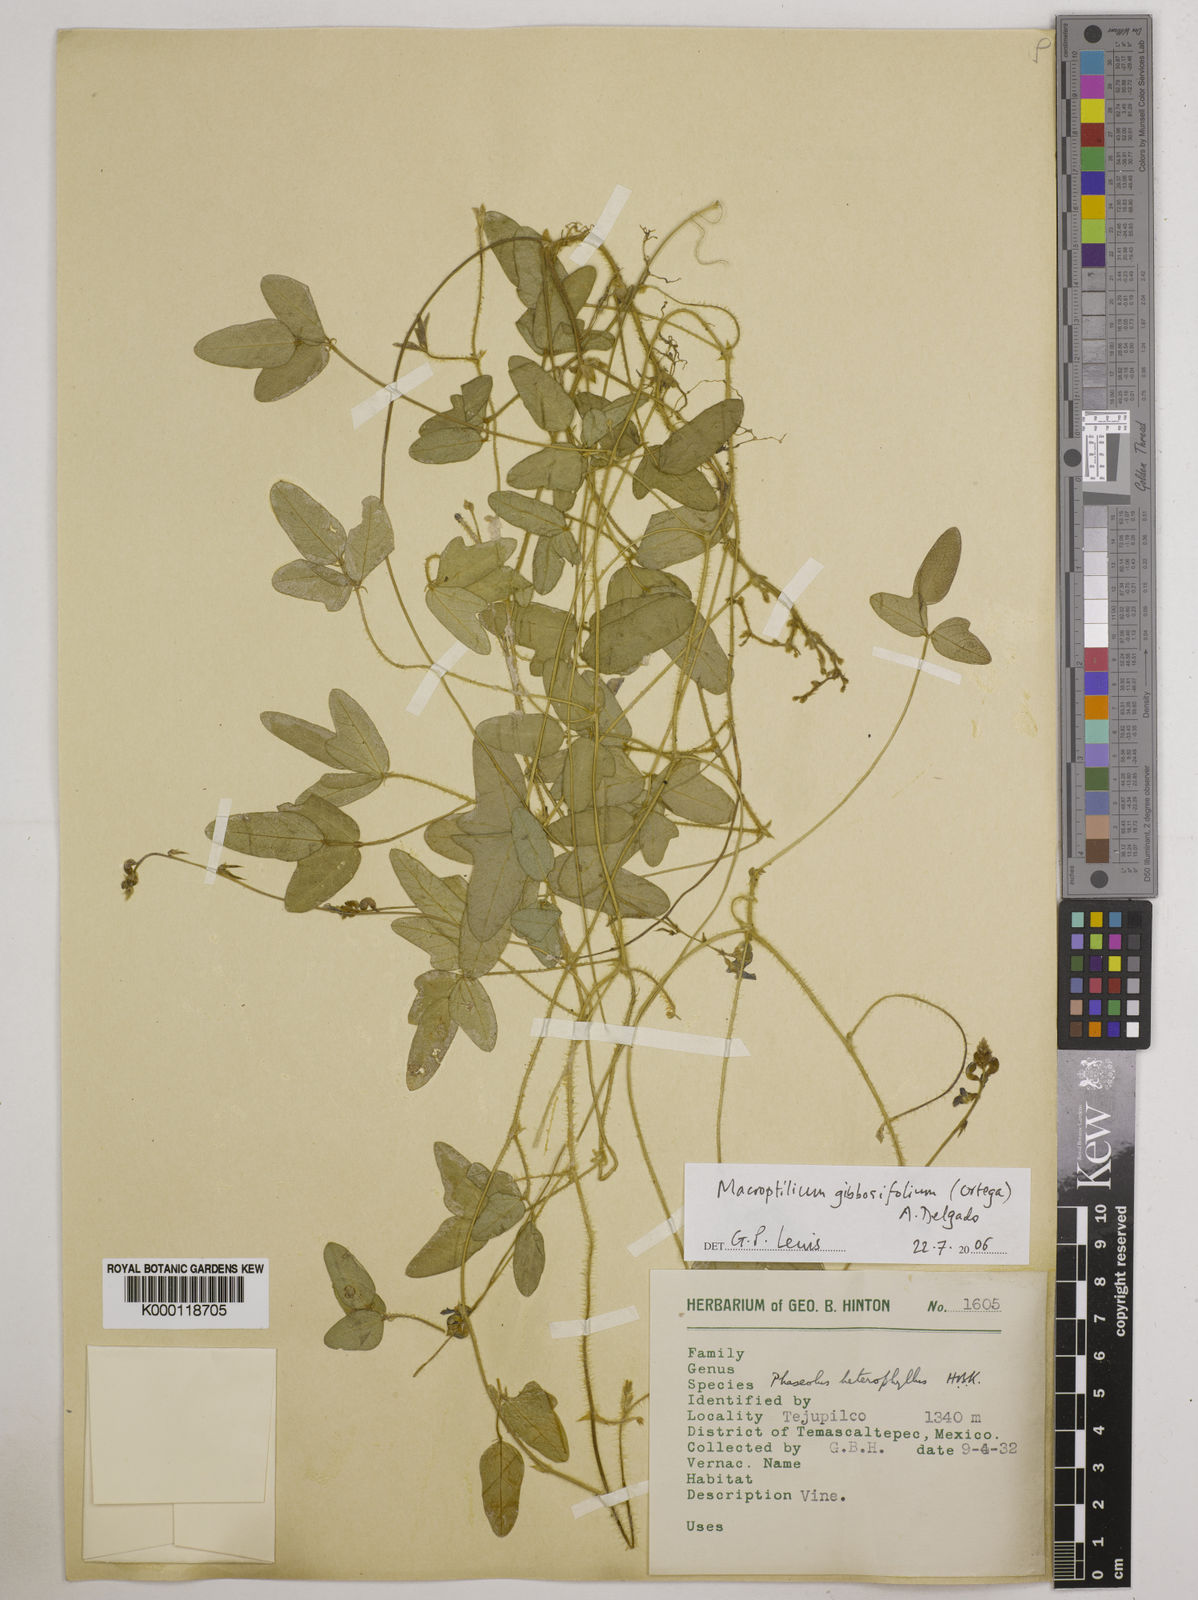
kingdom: Plantae
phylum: Tracheophyta
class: Magnoliopsida
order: Fabales
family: Fabaceae
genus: Macroptilium
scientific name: Macroptilium gibbosifolium
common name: Variableleaf bushbean
